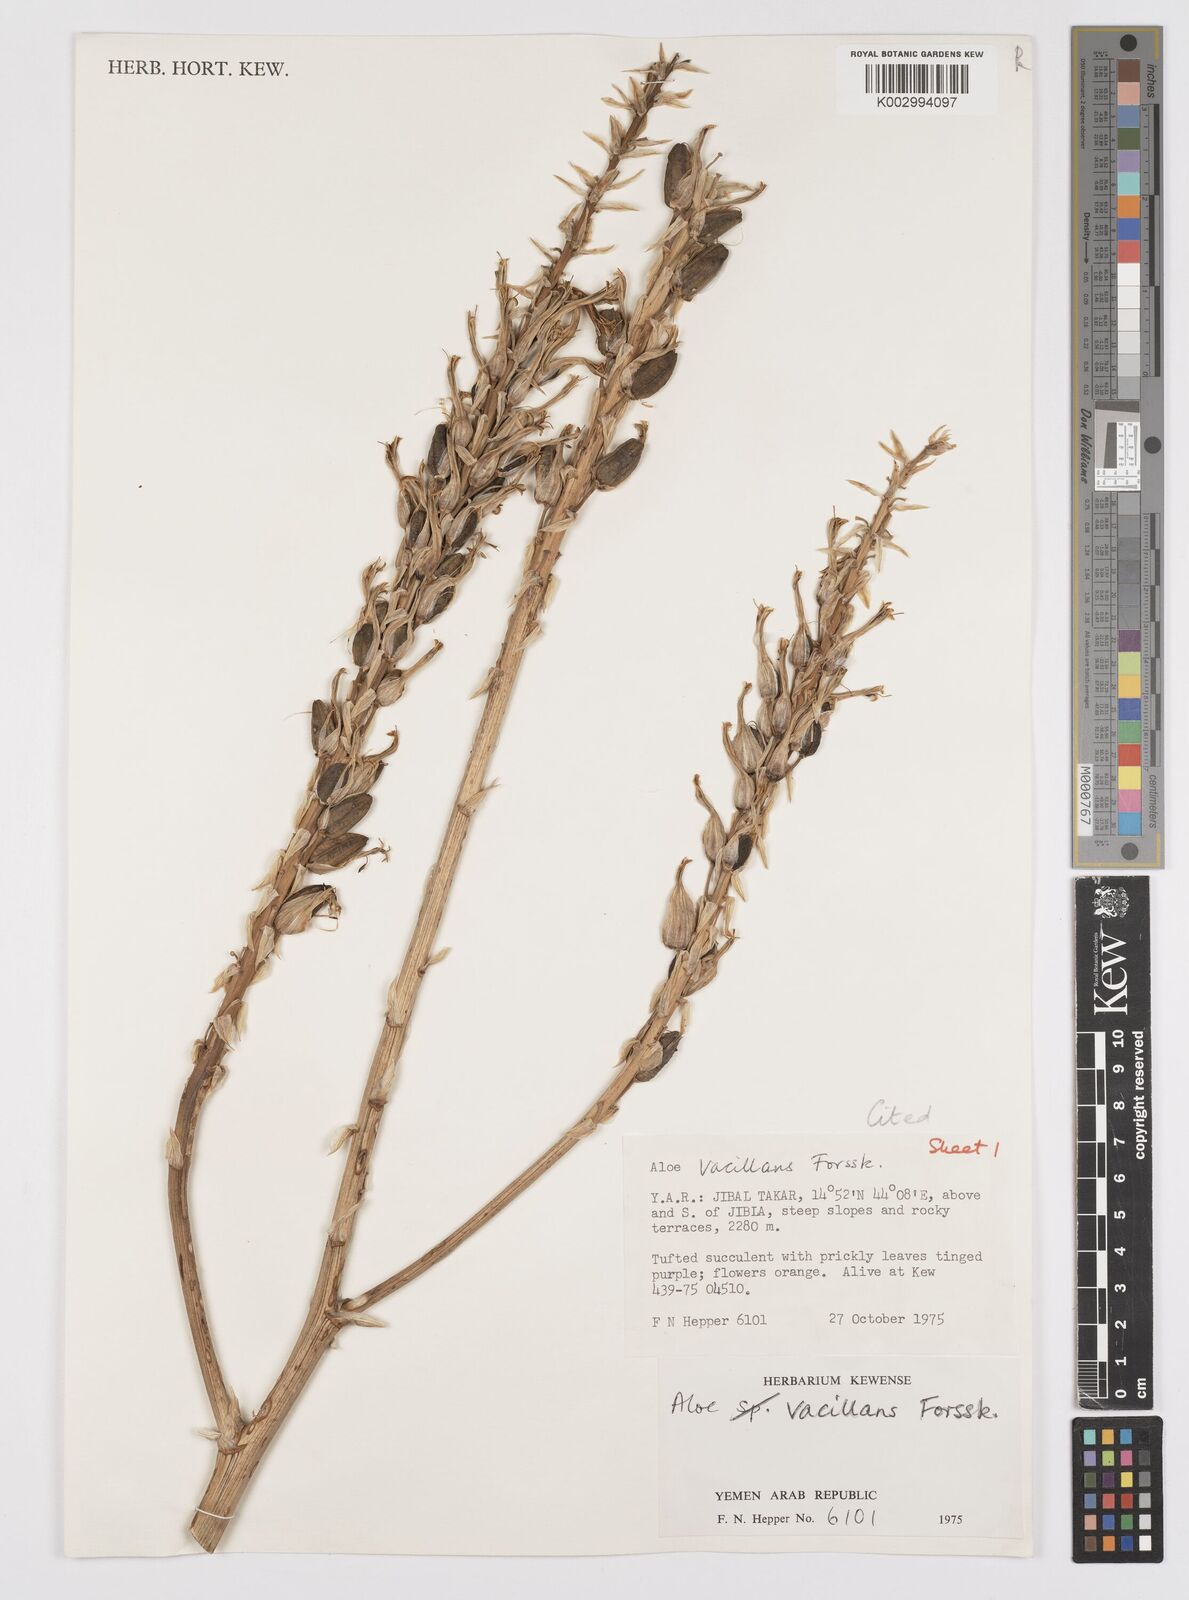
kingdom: Plantae
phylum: Tracheophyta
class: Liliopsida
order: Asparagales
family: Asphodelaceae
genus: Aloe
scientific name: Aloe vacillans
